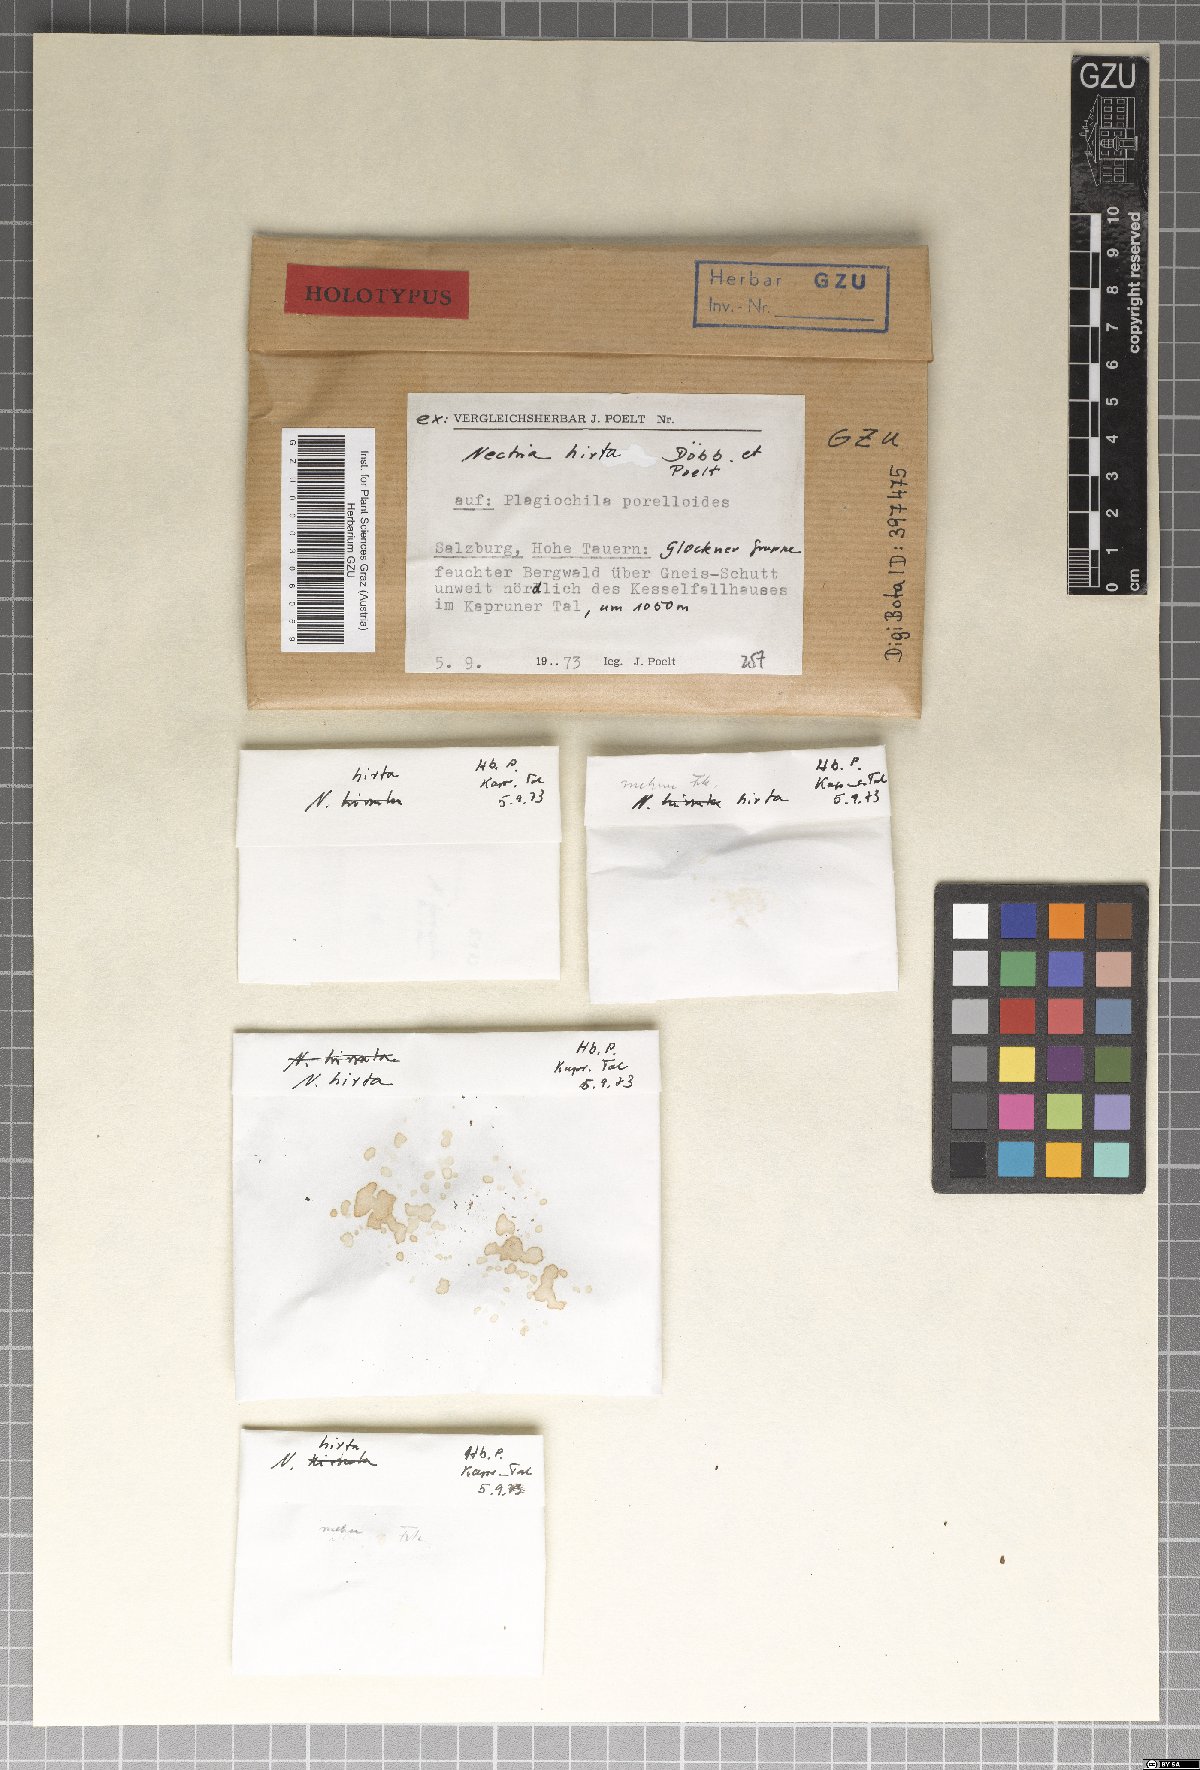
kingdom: Fungi
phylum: Ascomycota
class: Sordariomycetes
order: Hypocreales
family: Bionectriaceae
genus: Trichonectria
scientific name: Trichonectria hirta
